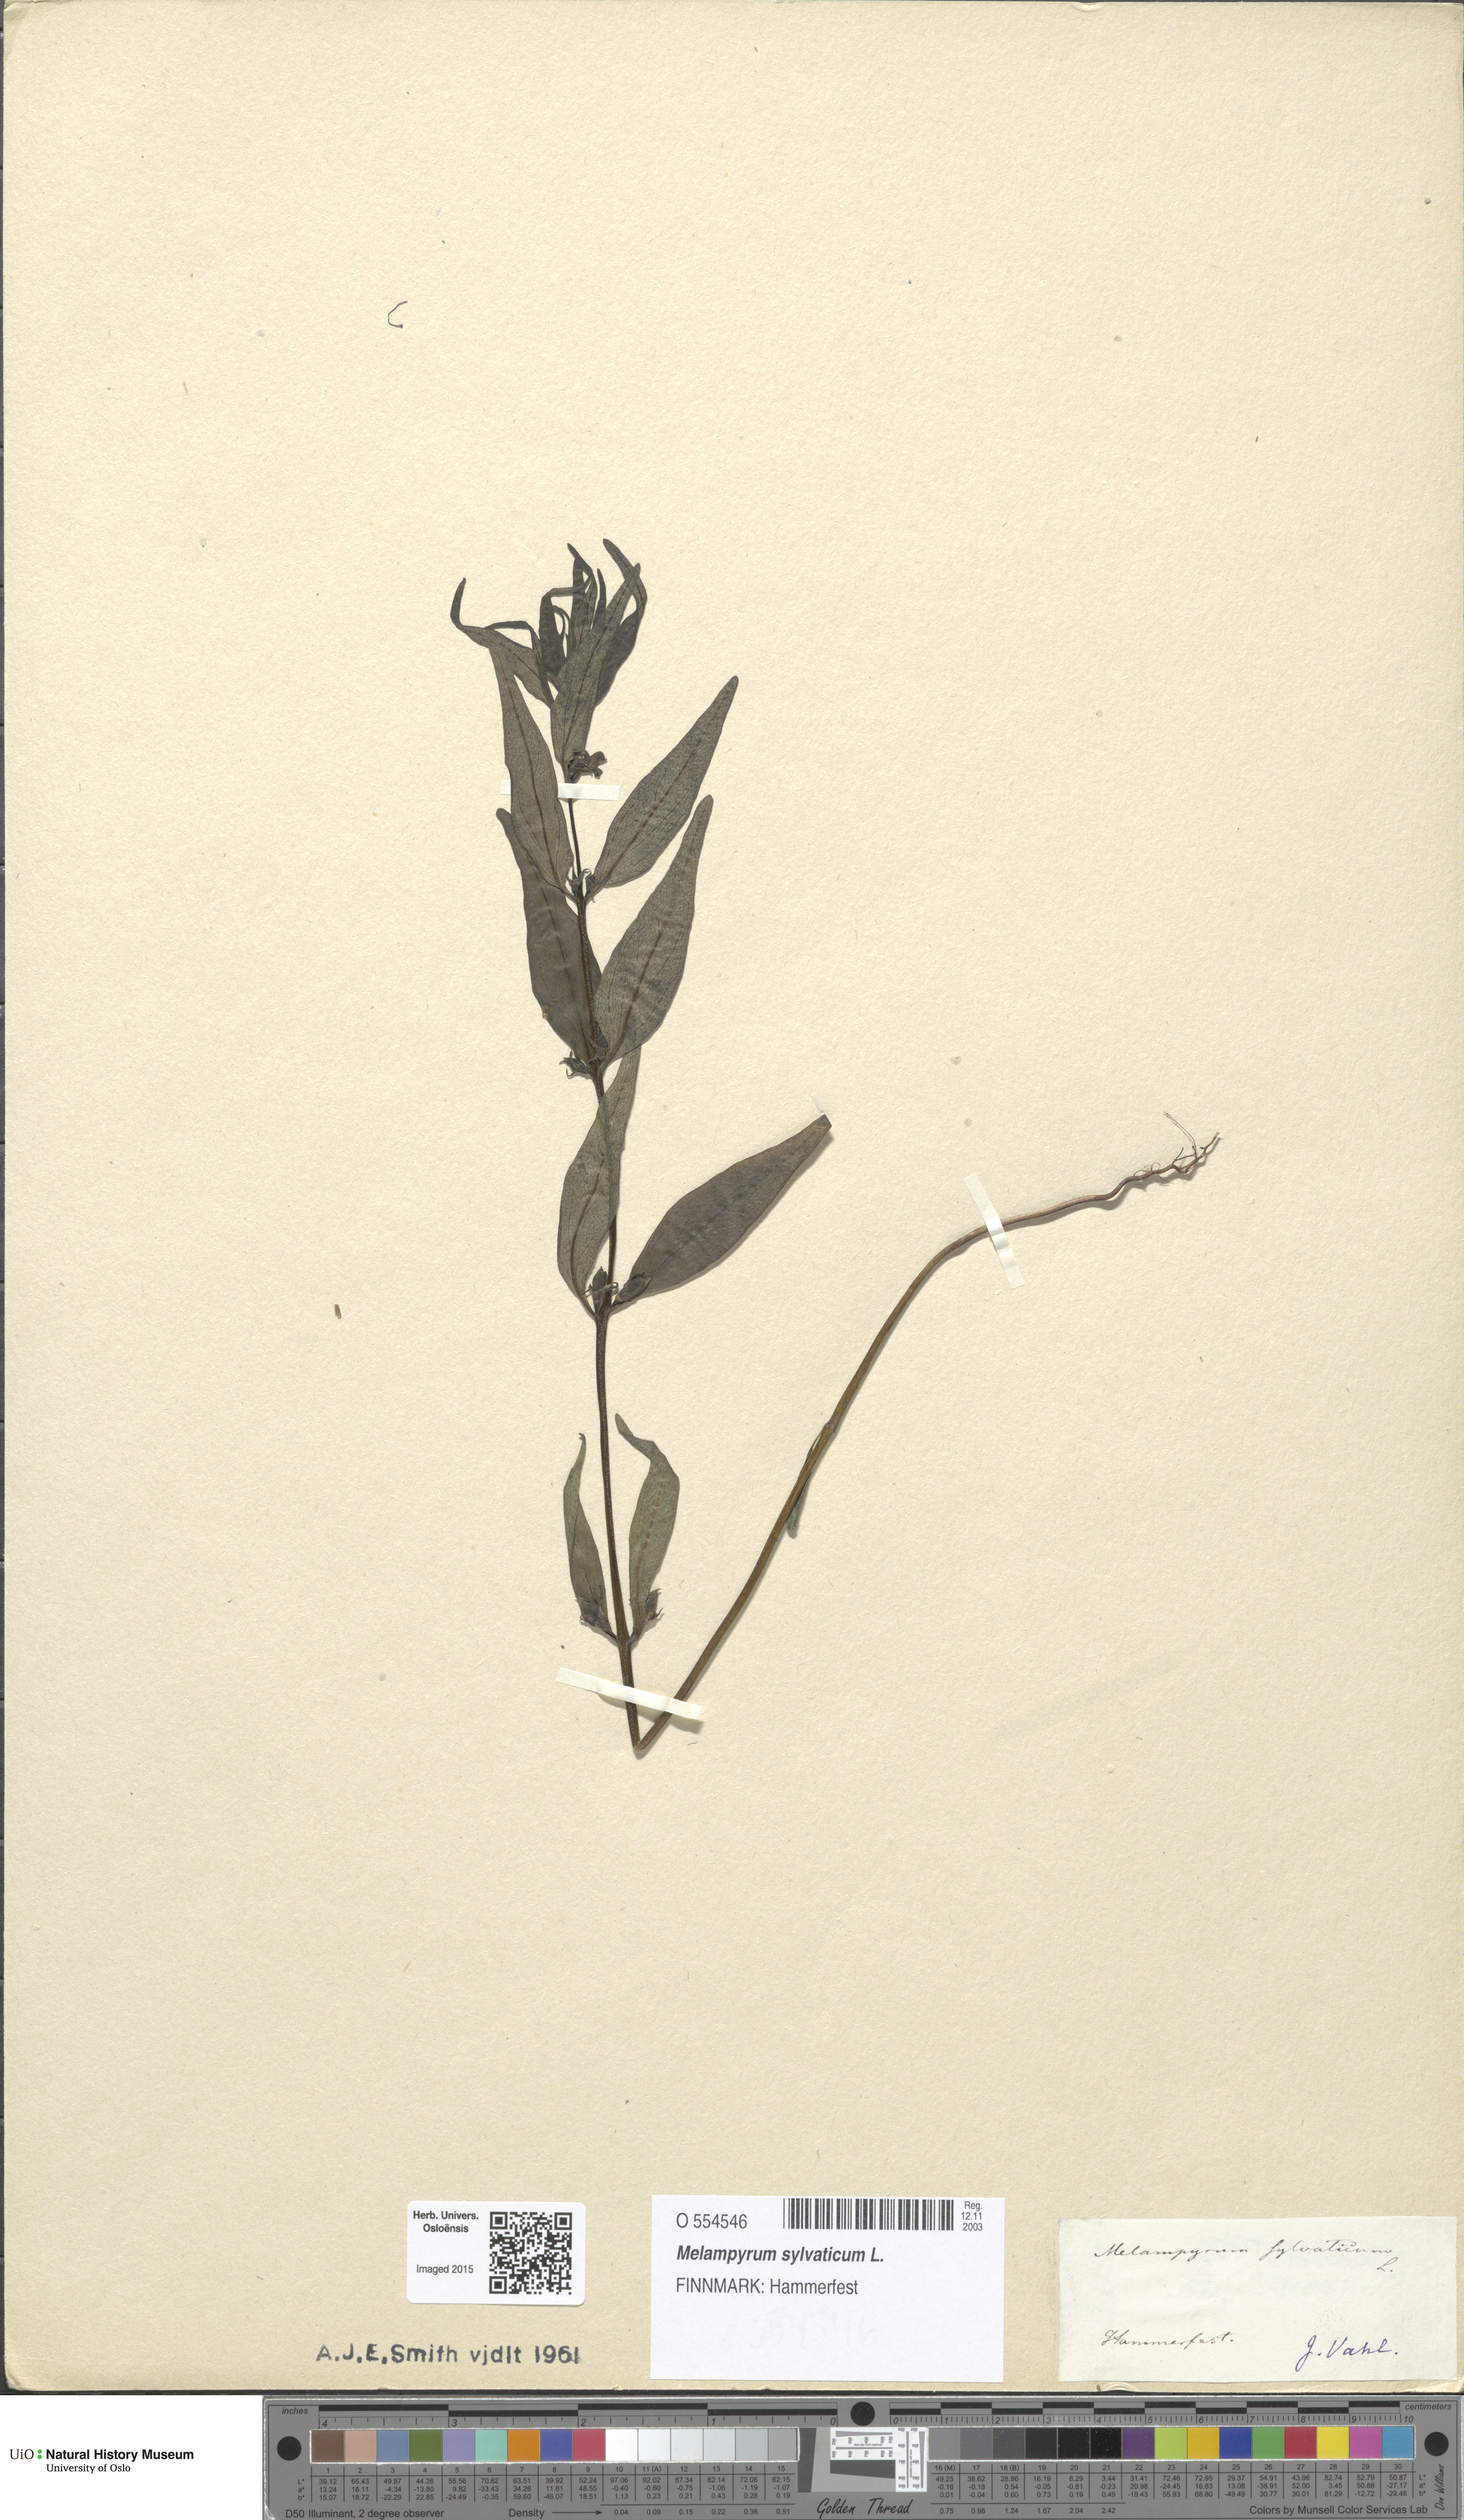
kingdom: Plantae
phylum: Tracheophyta
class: Magnoliopsida
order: Lamiales
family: Orobanchaceae
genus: Melampyrum
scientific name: Melampyrum sylvaticum
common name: Small cow-wheat
